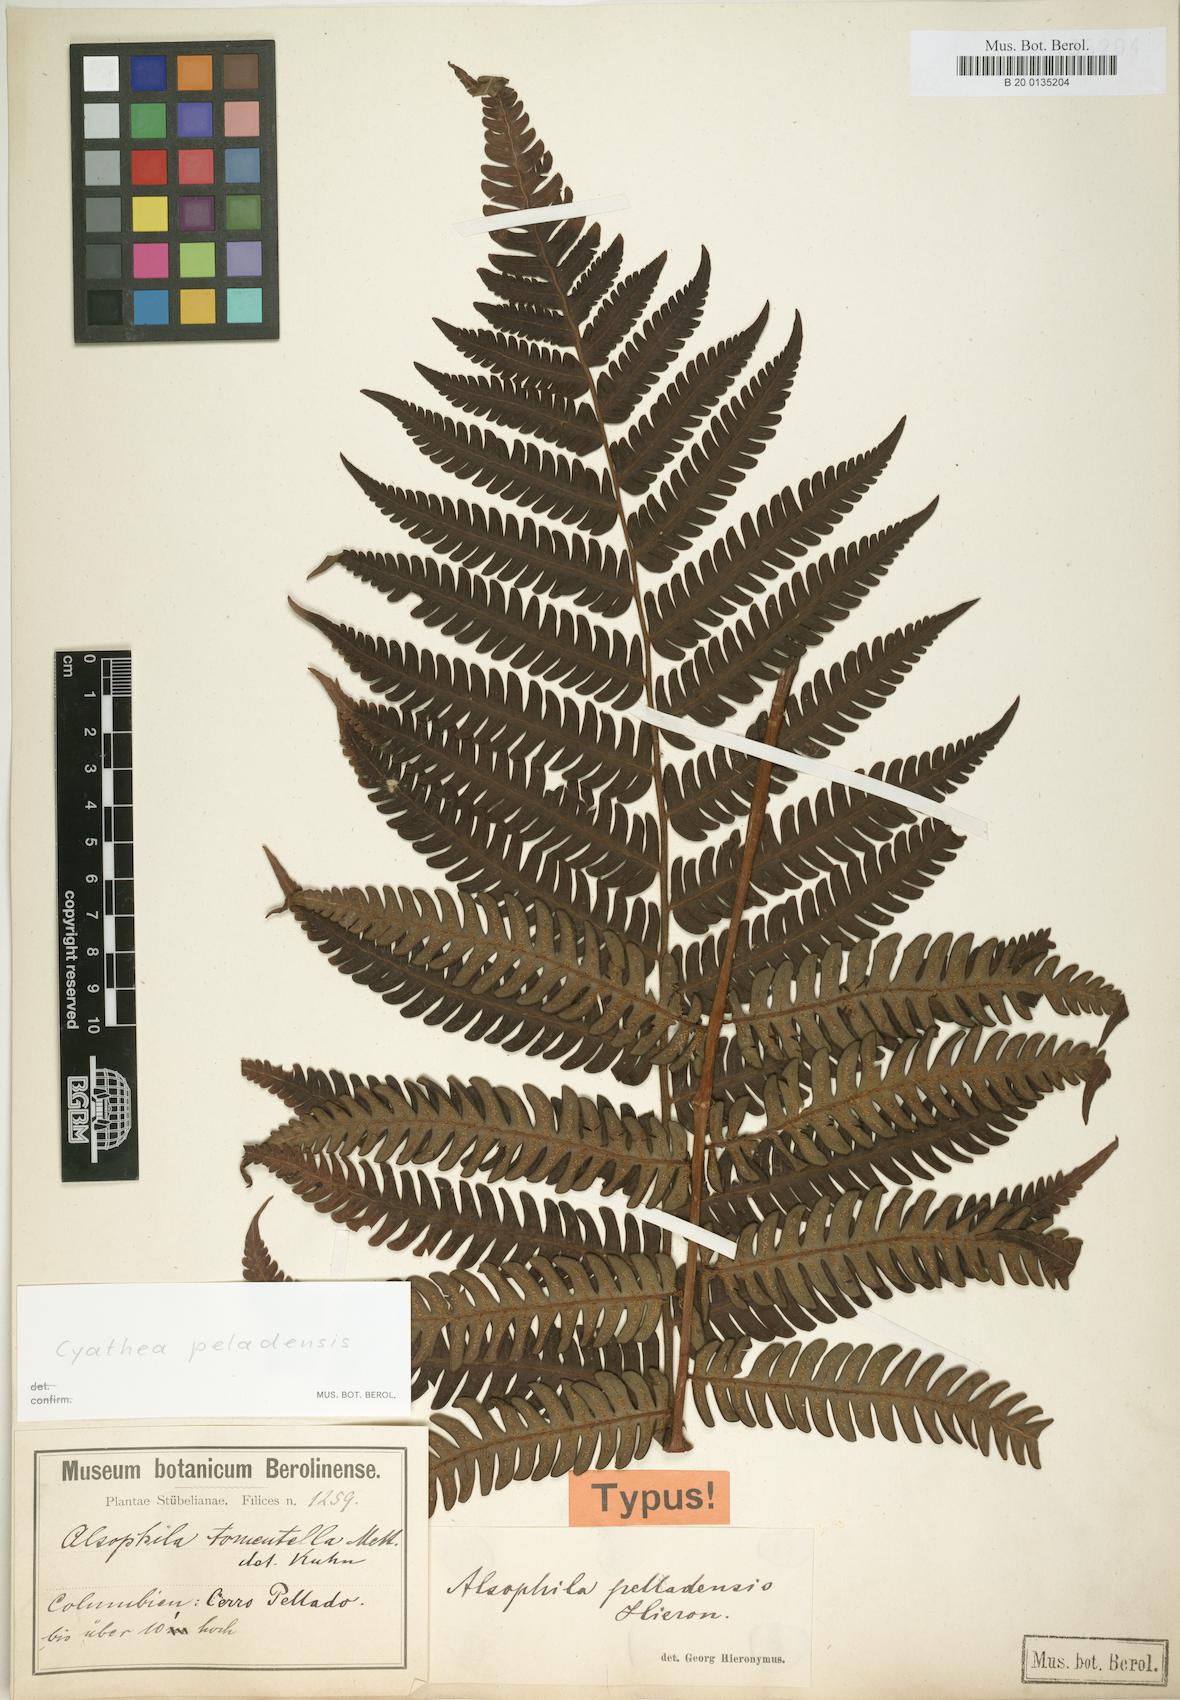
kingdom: Plantae
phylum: Tracheophyta
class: Polypodiopsida
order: Cyatheales
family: Cyatheaceae
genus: Cyathea
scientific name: Cyathea peladensis
